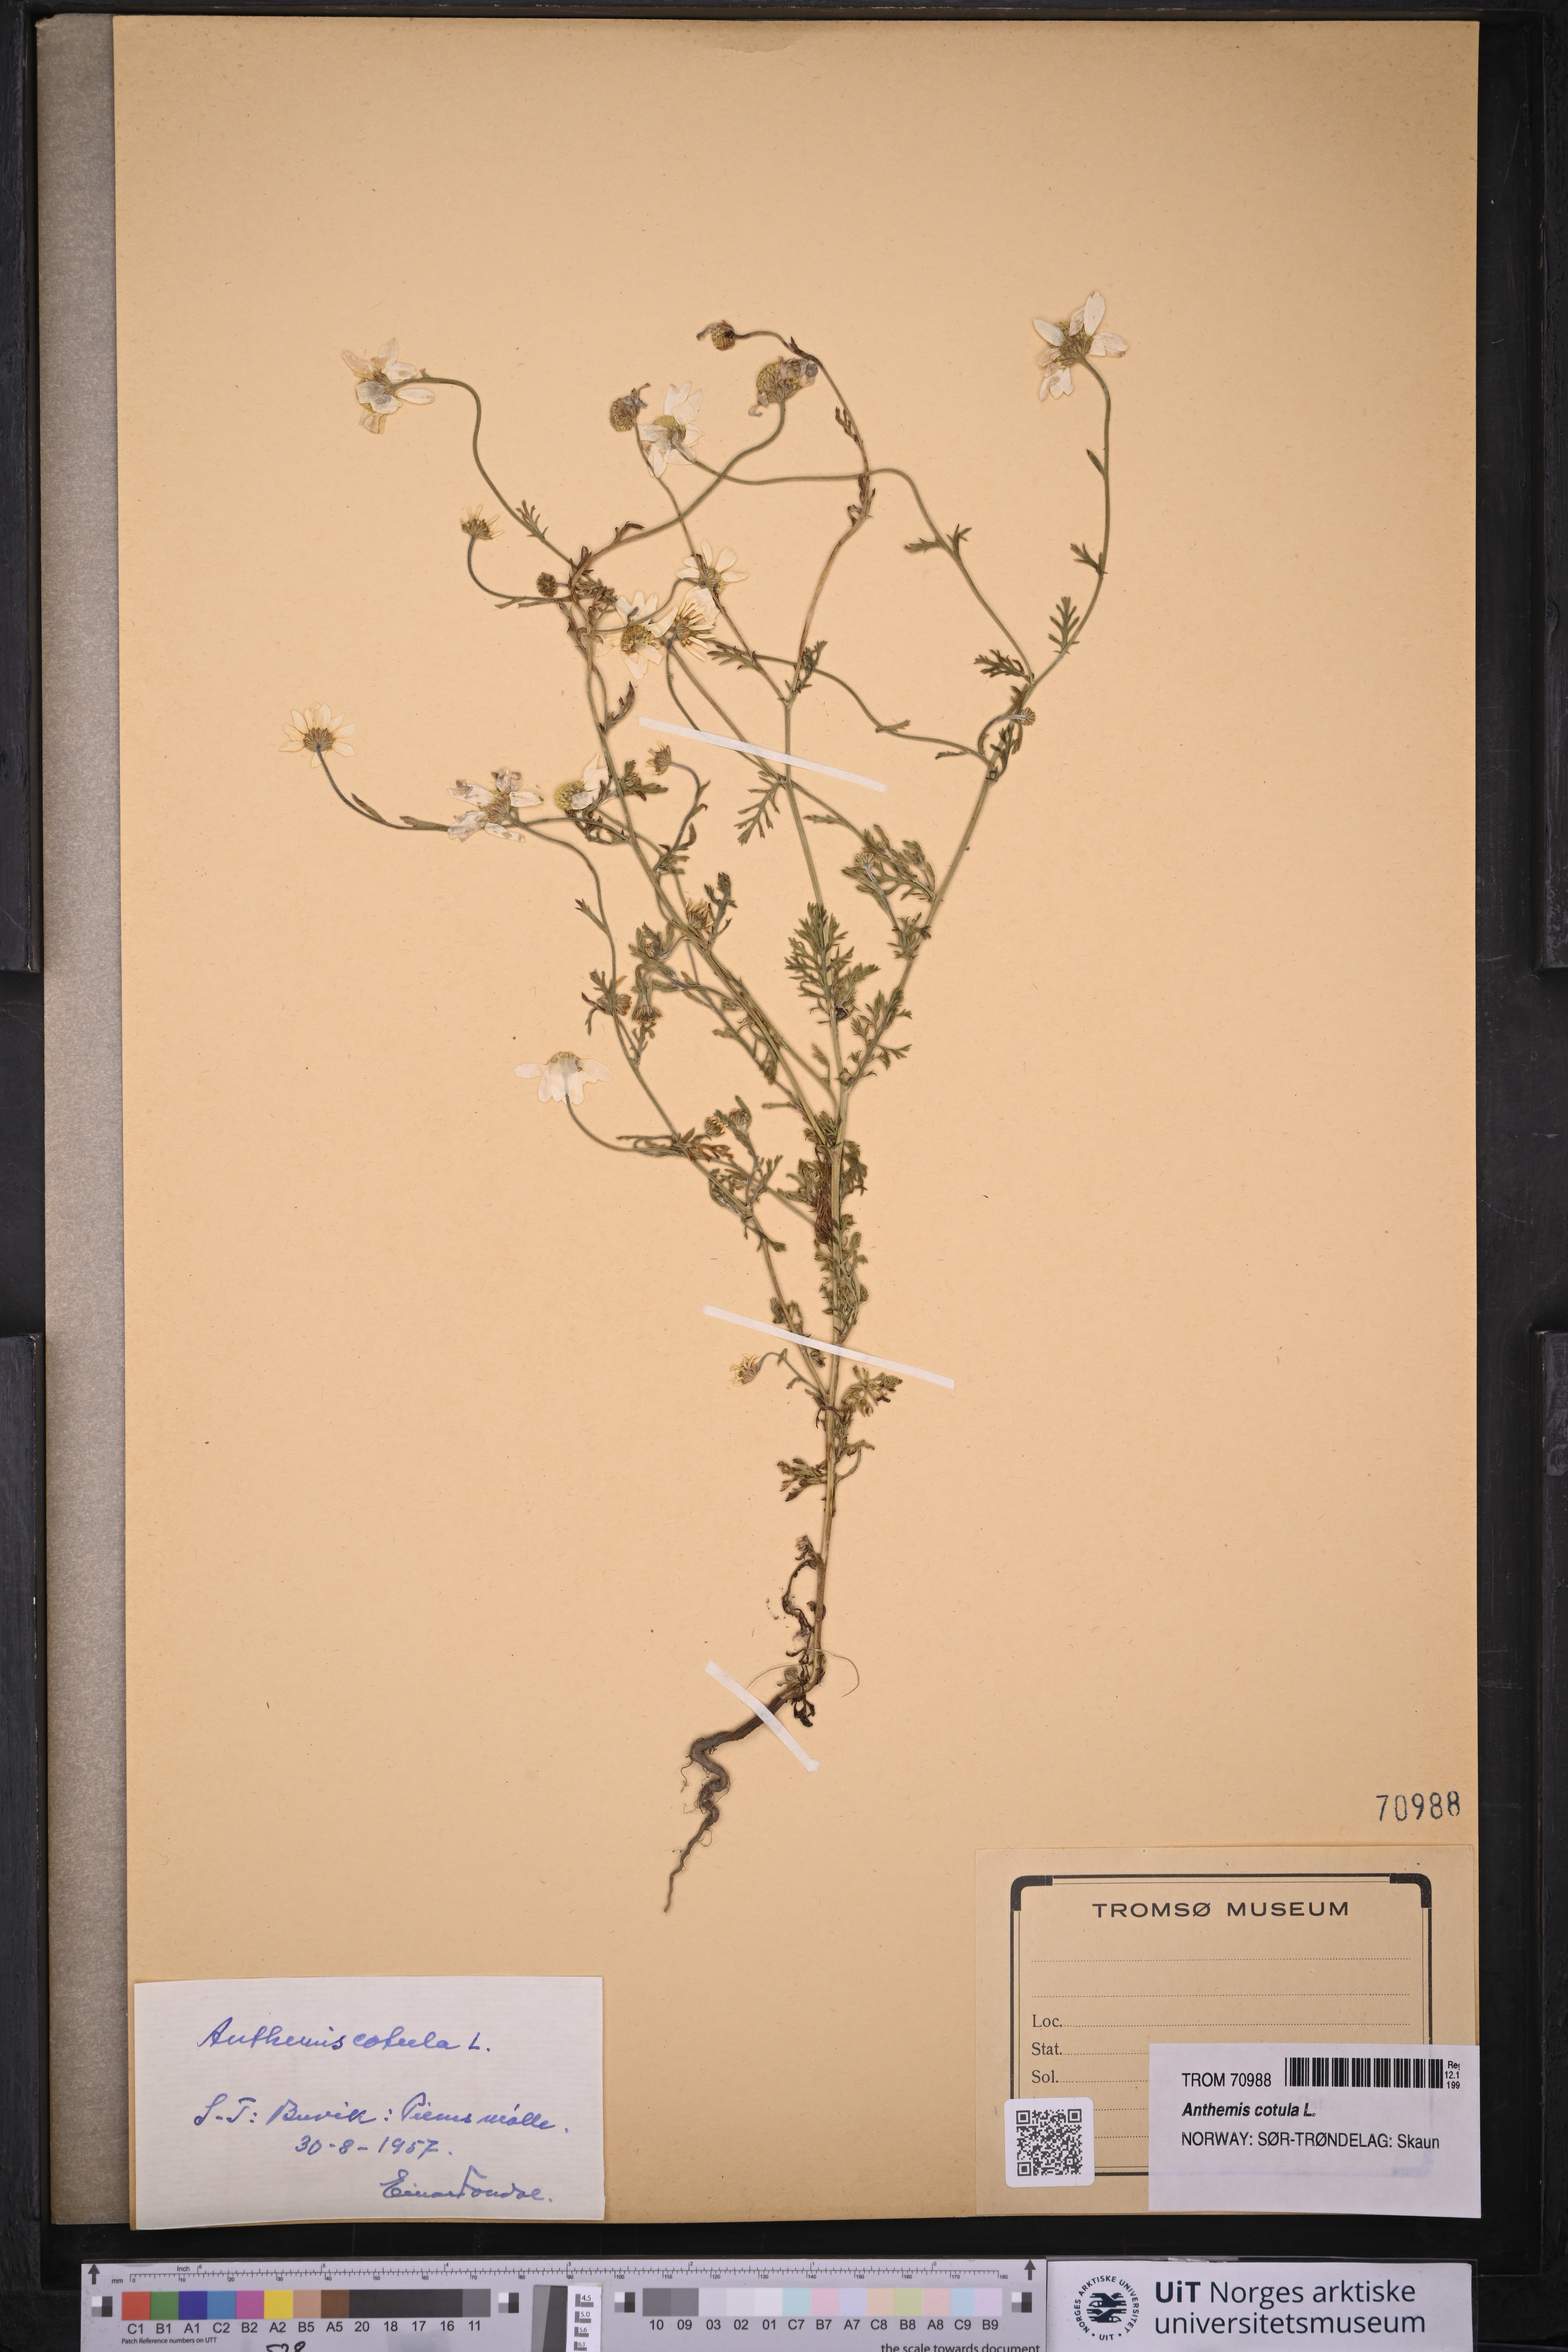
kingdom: Plantae
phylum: Tracheophyta
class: Magnoliopsida
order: Asterales
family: Asteraceae
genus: Anthemis
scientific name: Anthemis cotula
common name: Stinking chamomile
